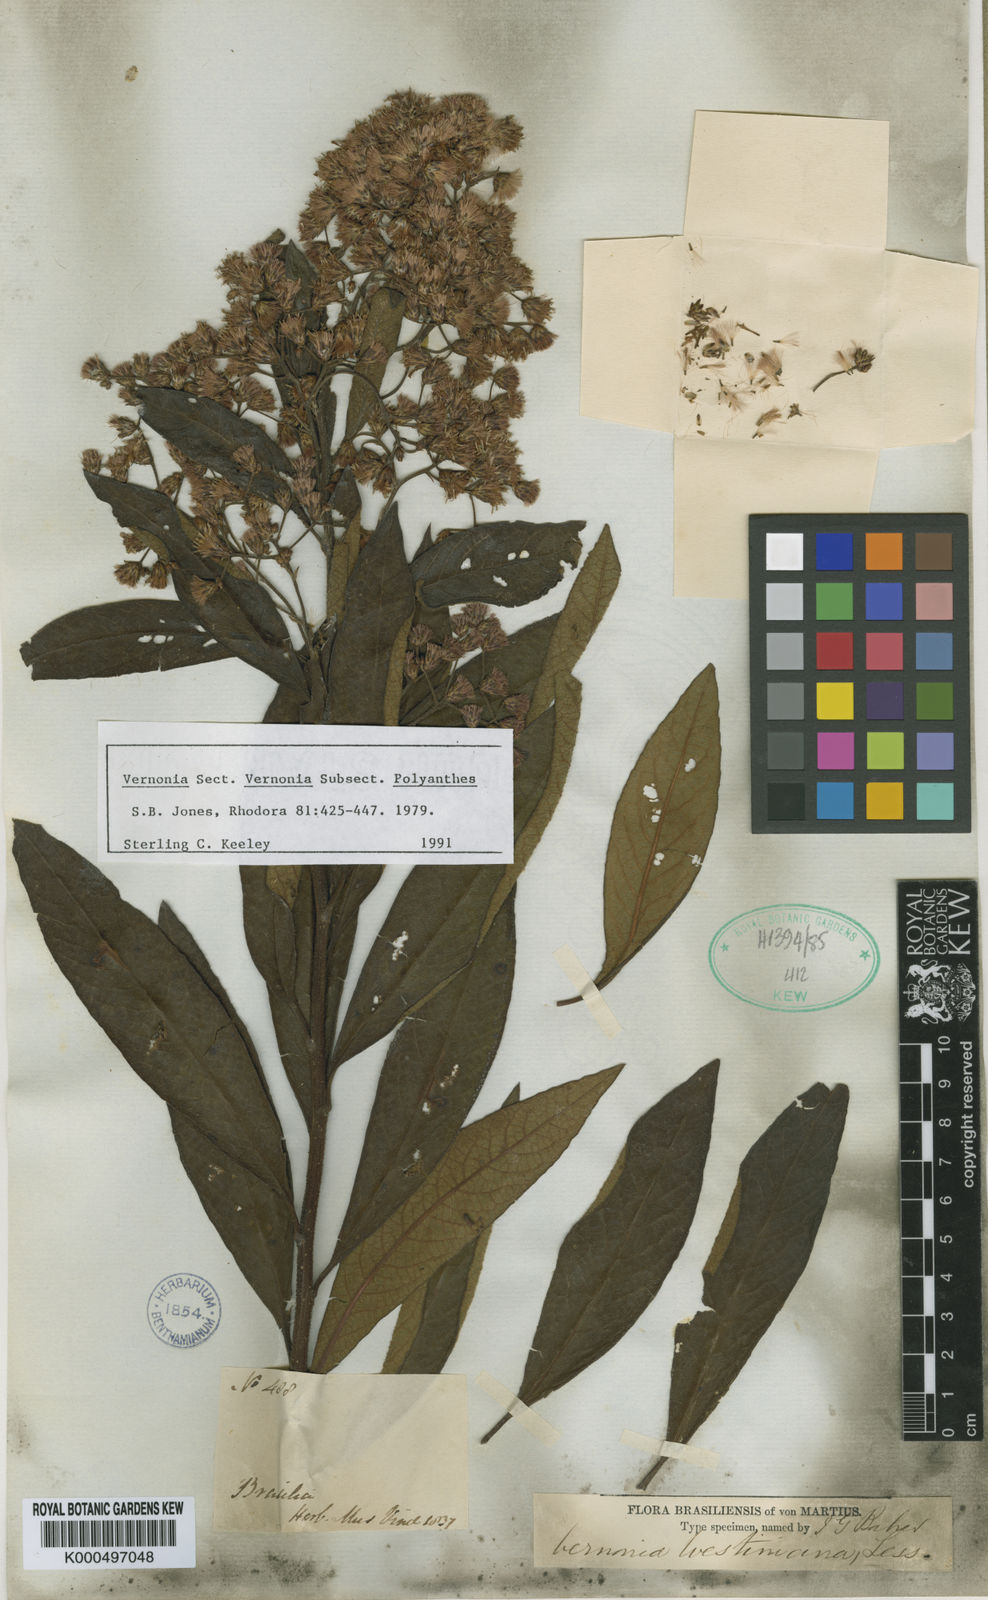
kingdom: Plantae
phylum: Tracheophyta
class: Magnoliopsida
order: Asterales
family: Asteraceae
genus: Vernonanthura
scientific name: Vernonanthura westiniana
